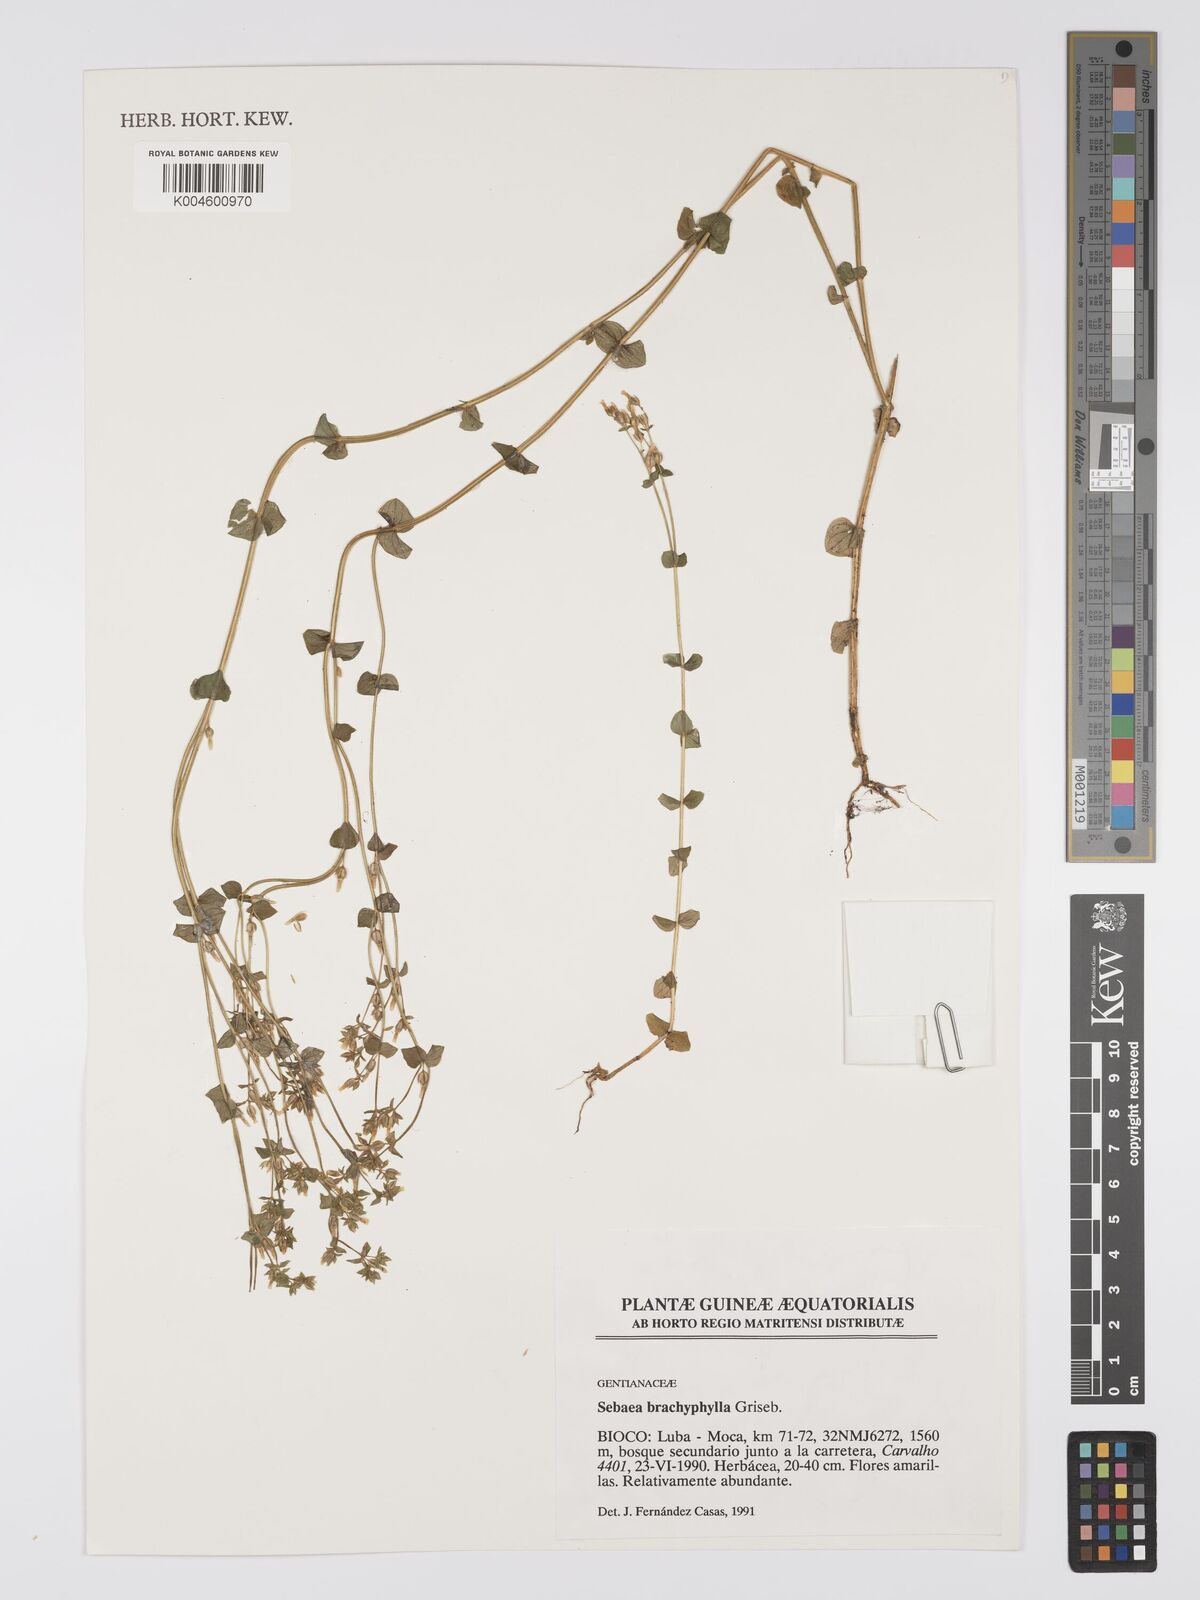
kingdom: Plantae
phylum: Tracheophyta
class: Magnoliopsida
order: Gentianales
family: Gentianaceae
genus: Sebaea
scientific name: Sebaea brachyphylla
